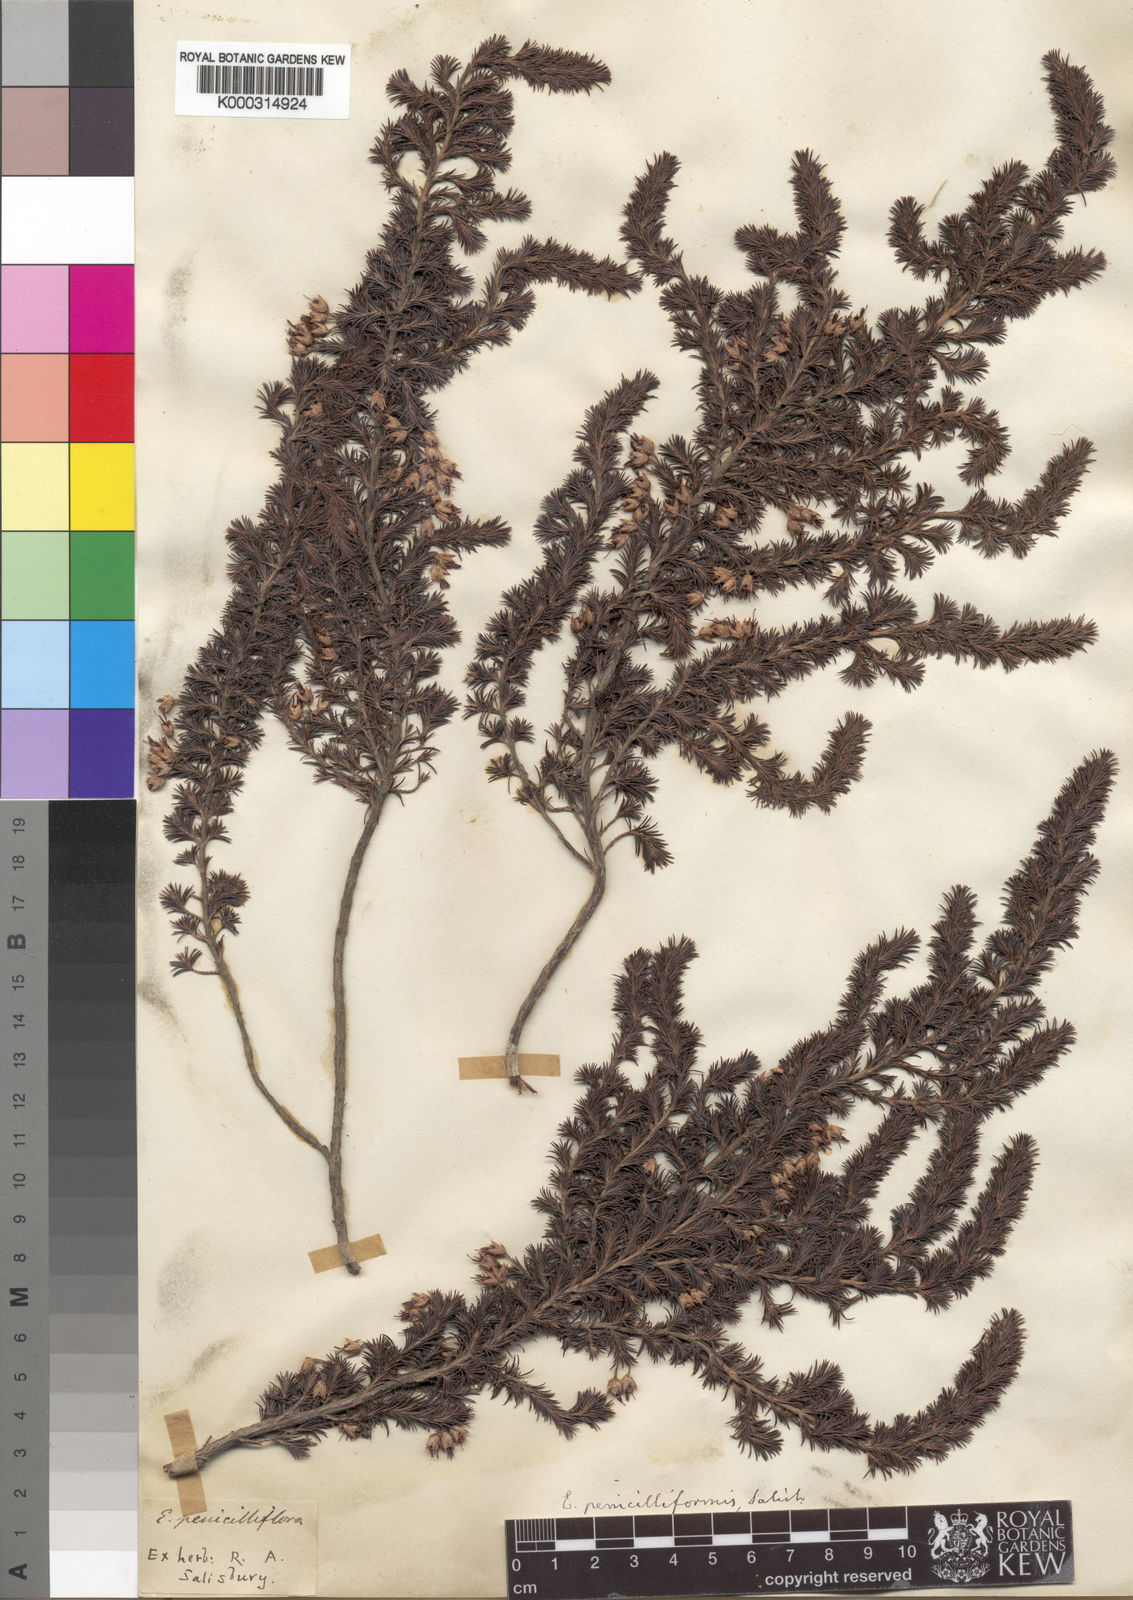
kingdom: Plantae
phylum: Tracheophyta
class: Magnoliopsida
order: Ericales
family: Ericaceae
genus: Erica
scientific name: Erica penicilliformis
